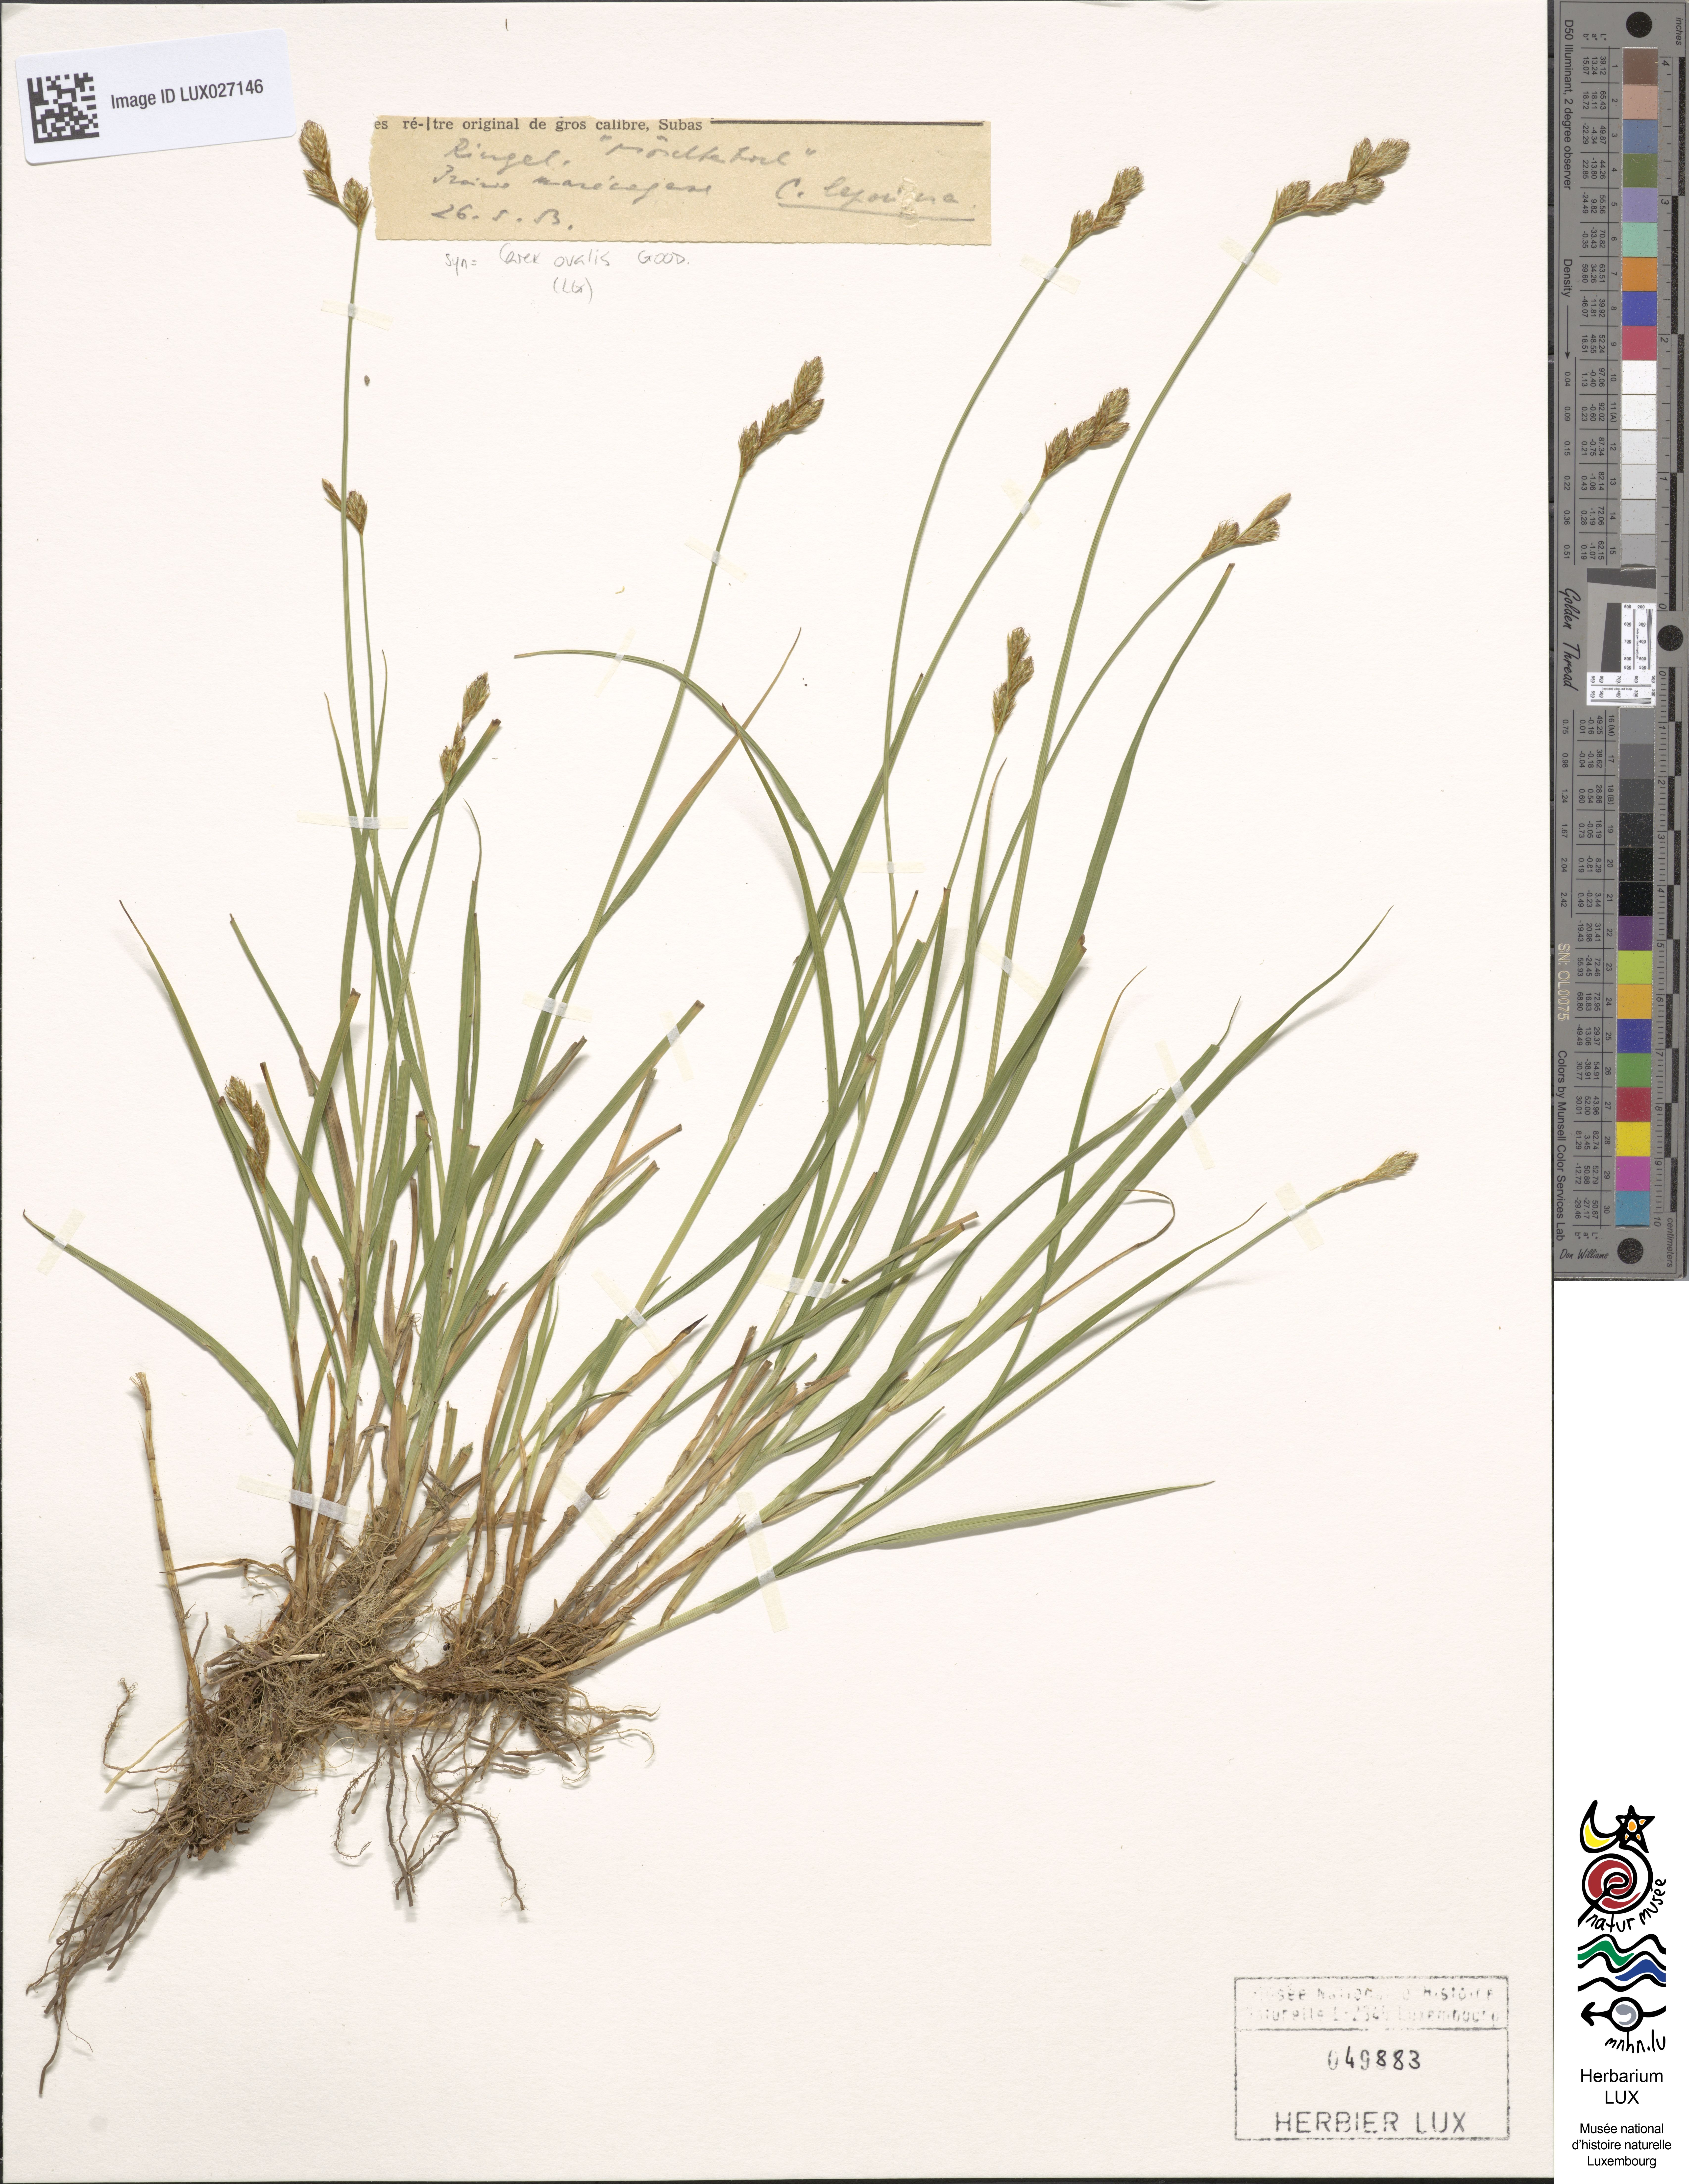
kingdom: Plantae
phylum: Tracheophyta
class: Liliopsida
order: Poales
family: Cyperaceae
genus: Carex
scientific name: Carex leporina
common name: Oval sedge
